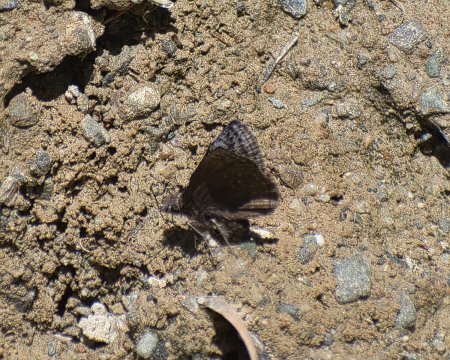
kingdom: Animalia
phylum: Arthropoda
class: Insecta
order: Lepidoptera
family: Hesperiidae
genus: Erynnis
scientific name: Erynnis icelus
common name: Dreamy Duskywing
